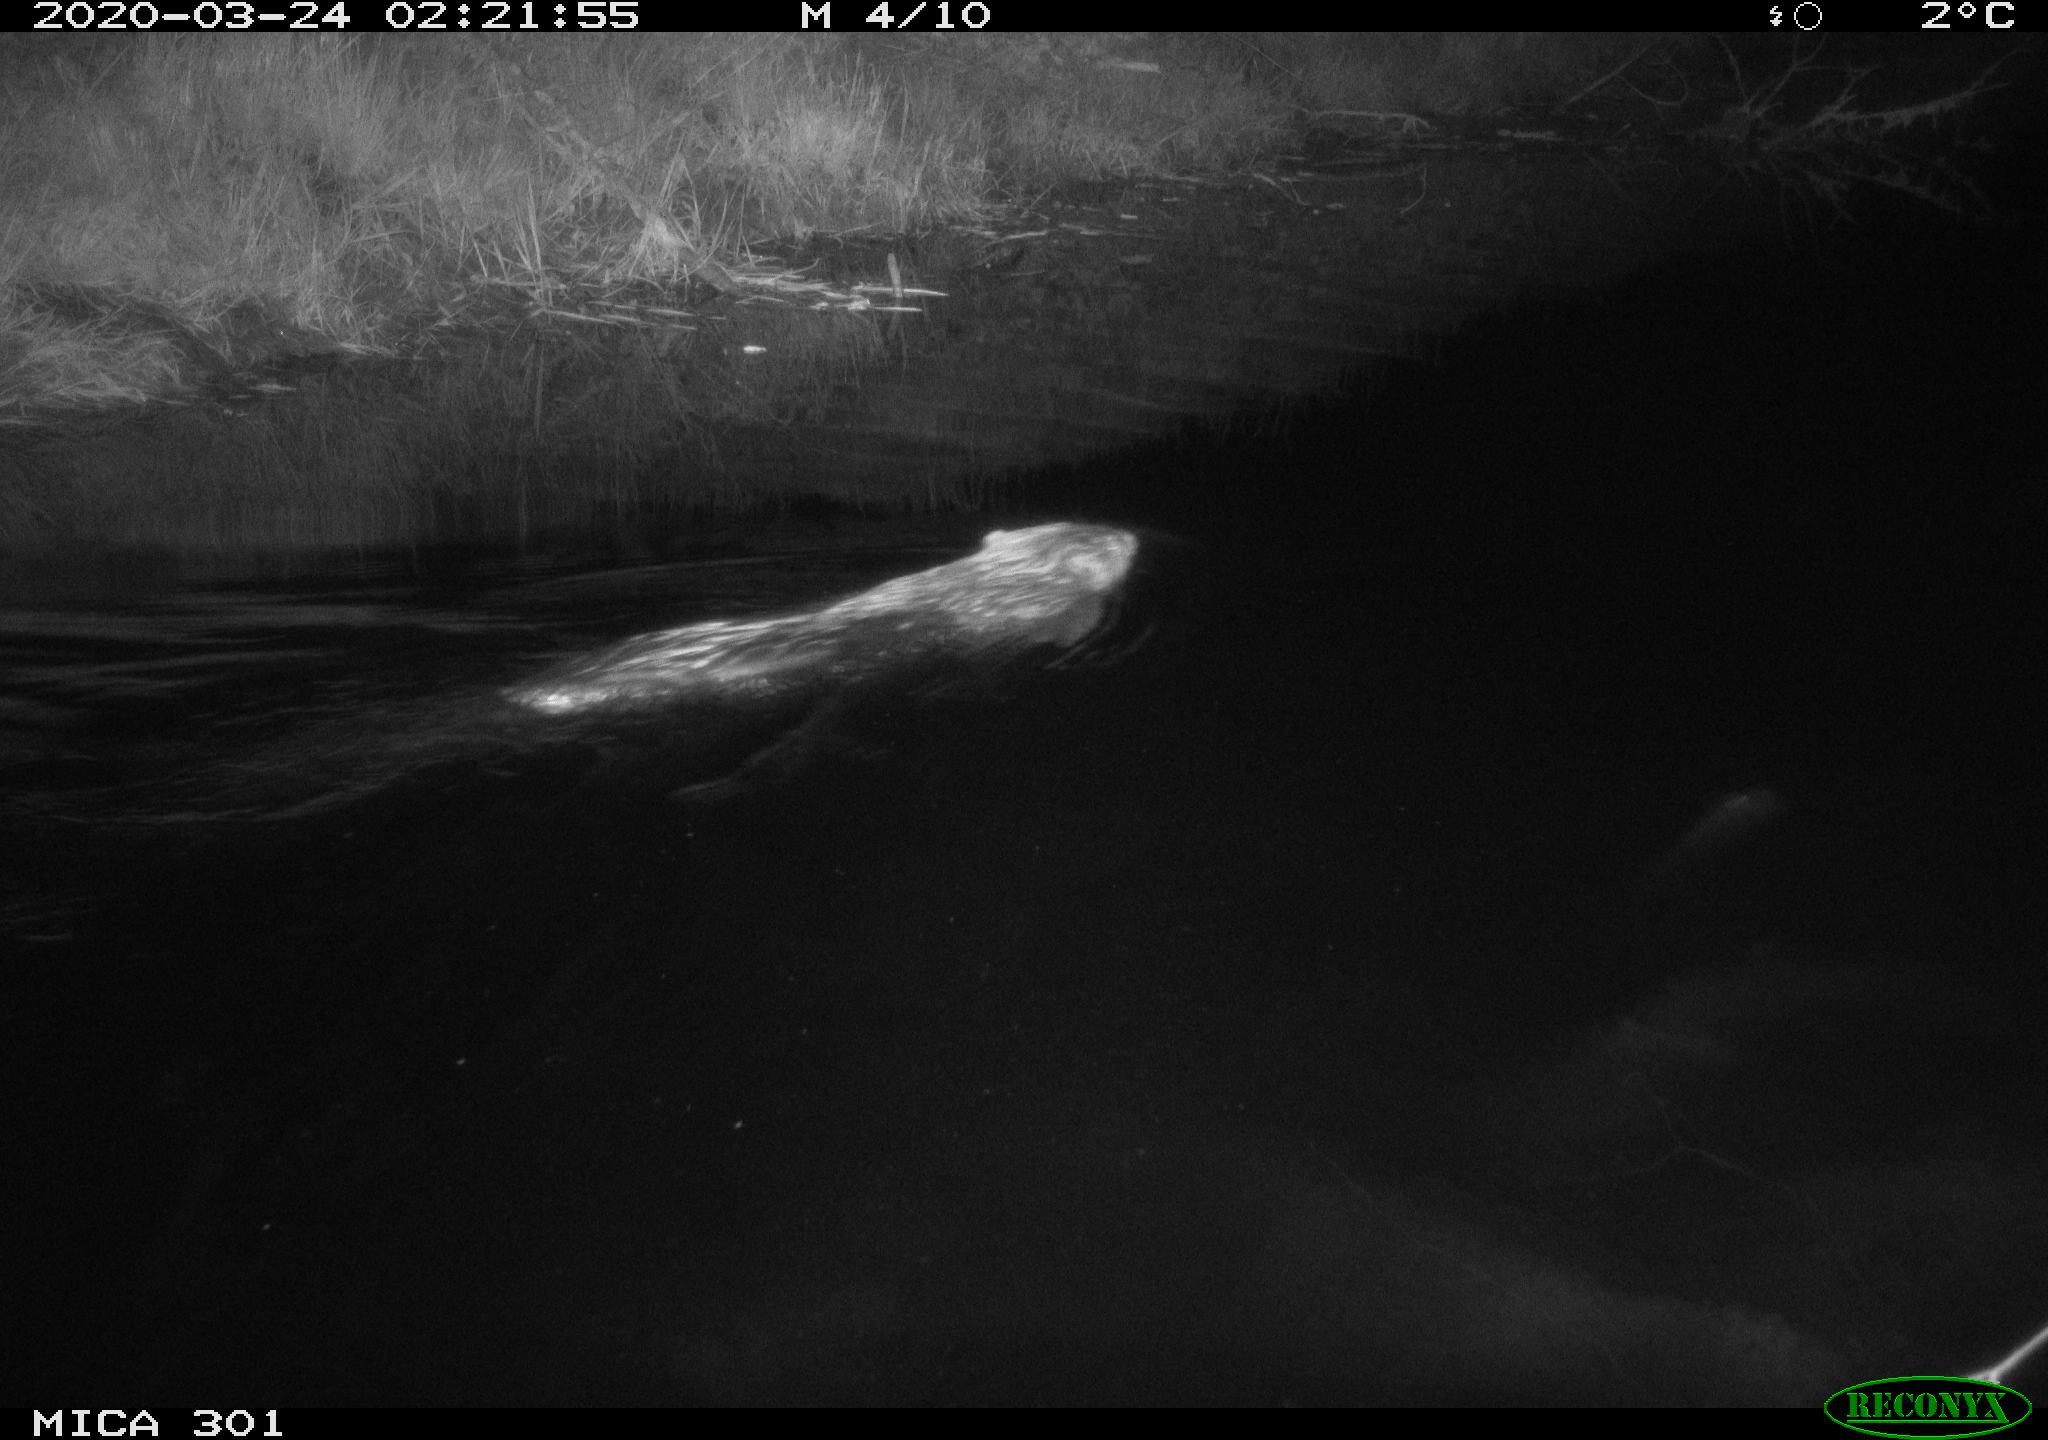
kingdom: Animalia
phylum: Chordata
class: Mammalia
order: Rodentia
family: Castoridae
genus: Castor
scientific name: Castor fiber
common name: Eurasian beaver
